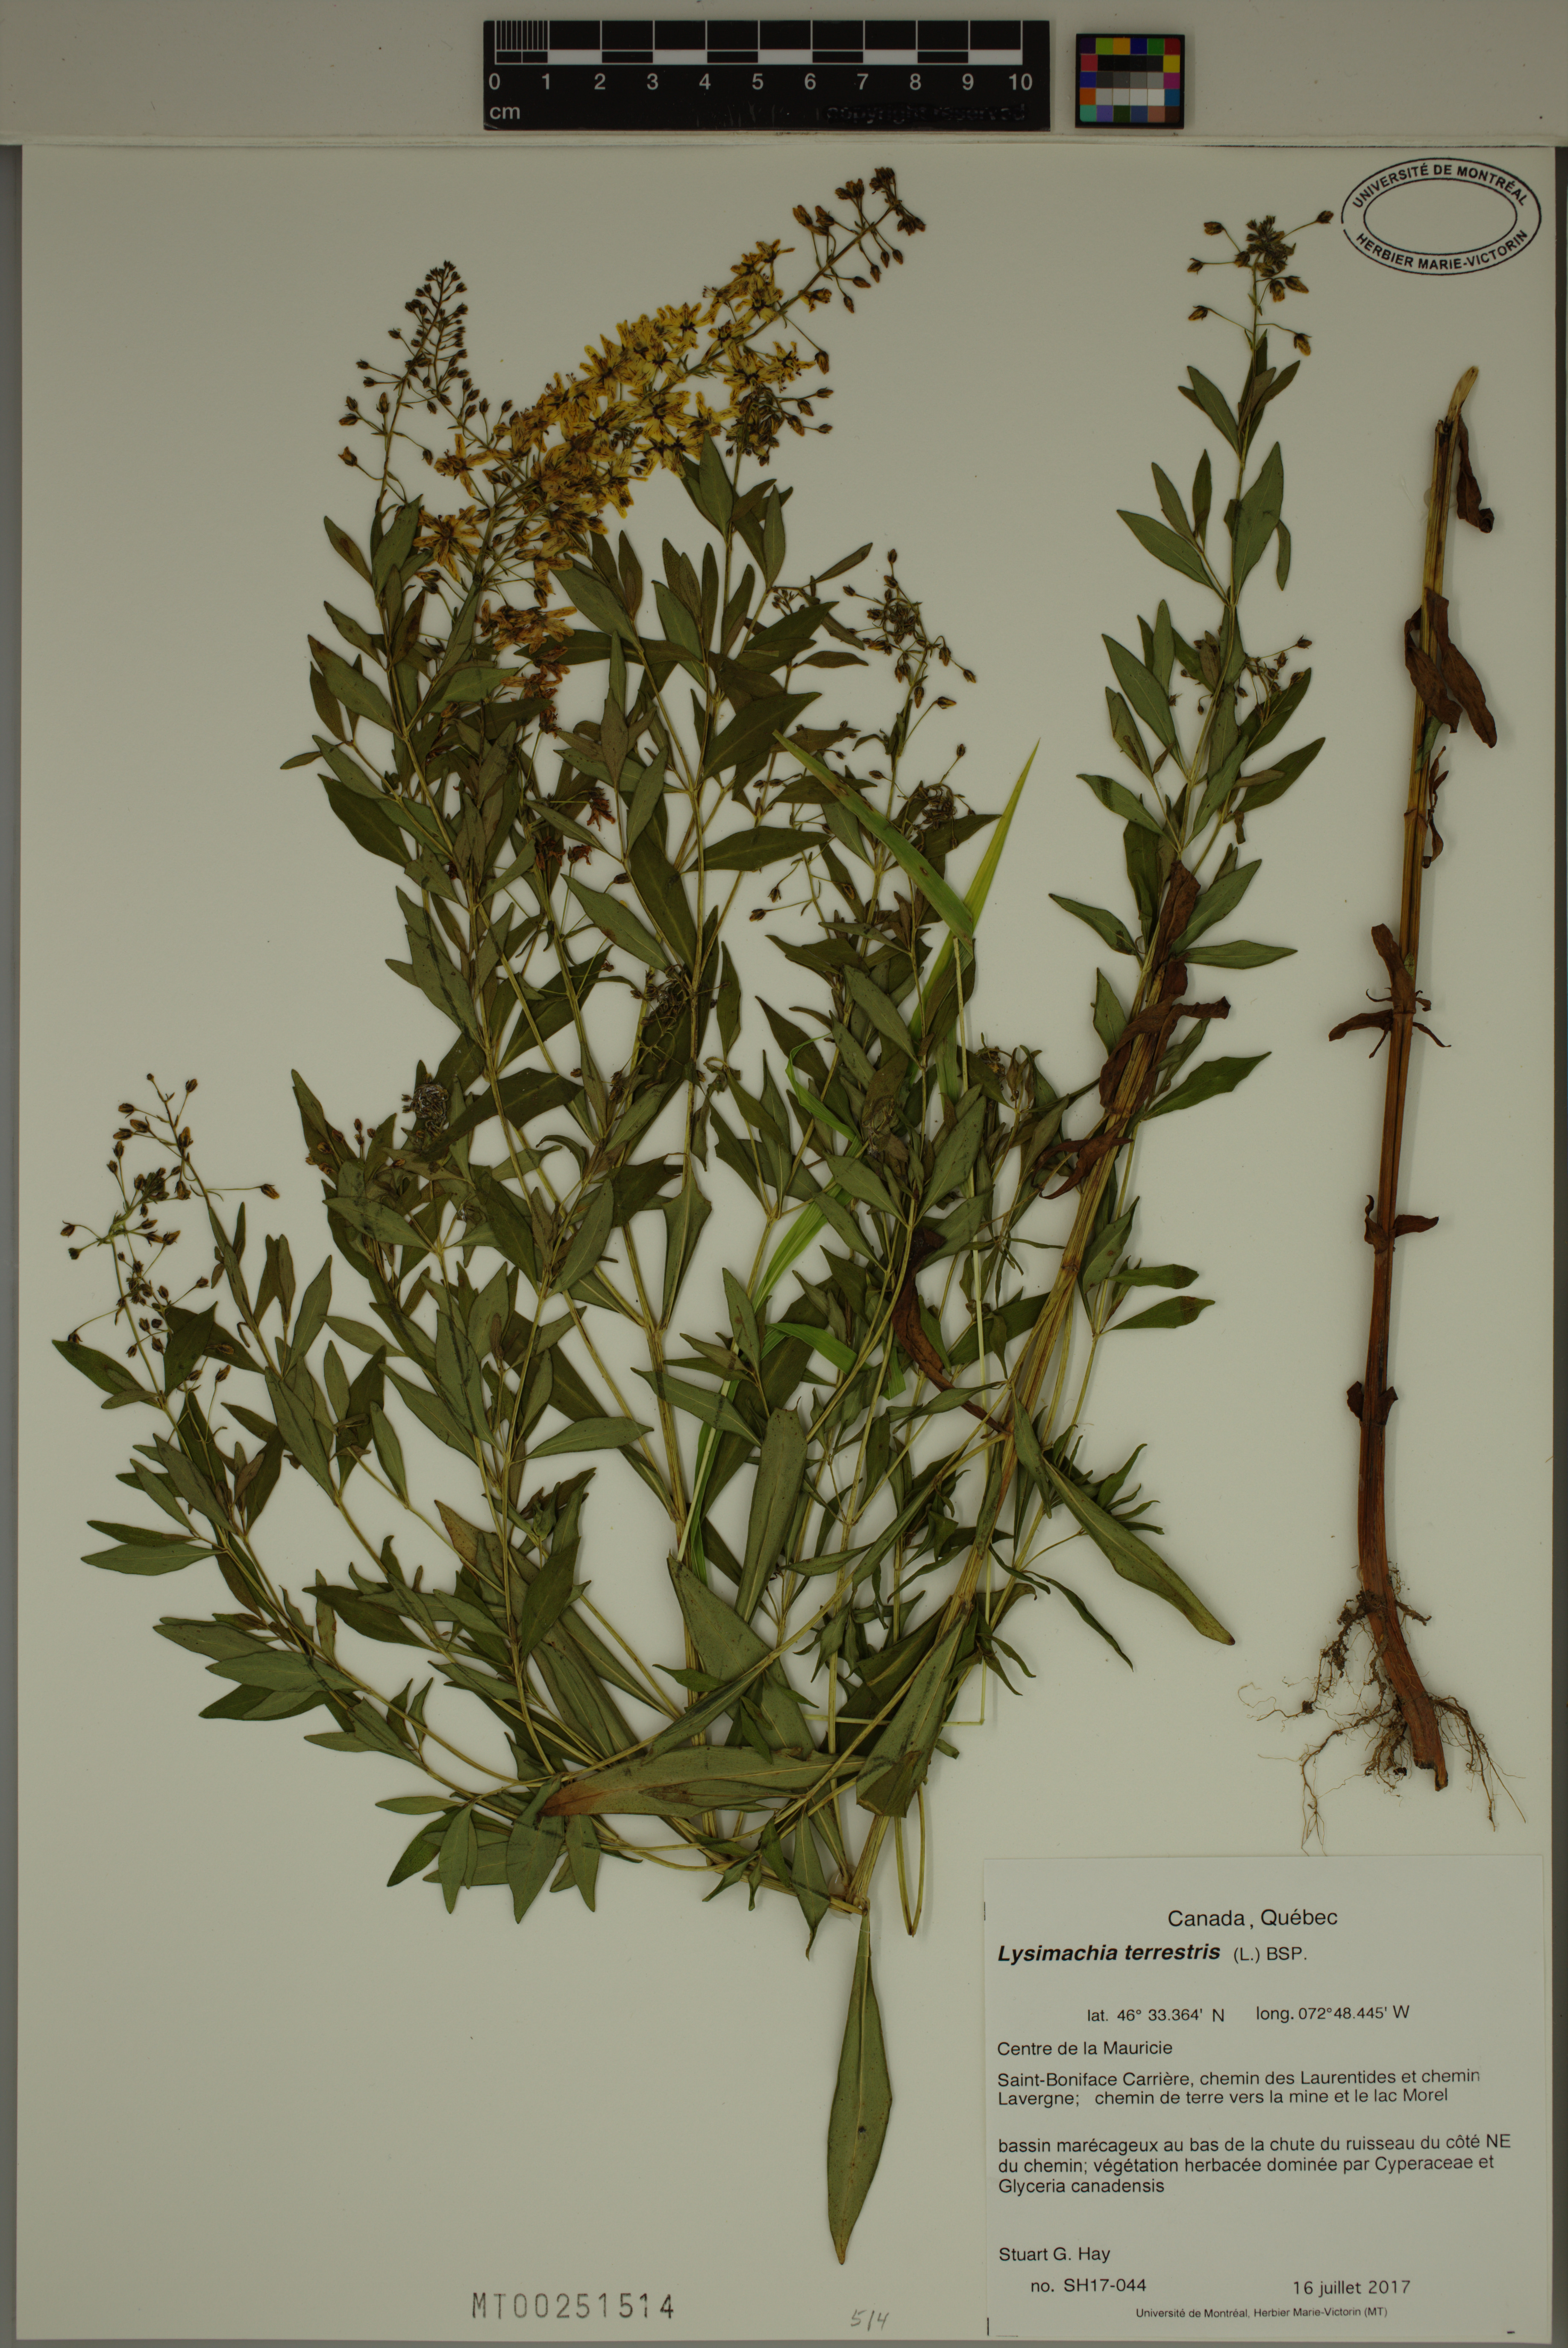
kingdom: Plantae
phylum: Tracheophyta
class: Magnoliopsida
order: Ericales
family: Primulaceae
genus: Lysimachia
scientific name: Lysimachia terrestris
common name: Lake loosestrife
